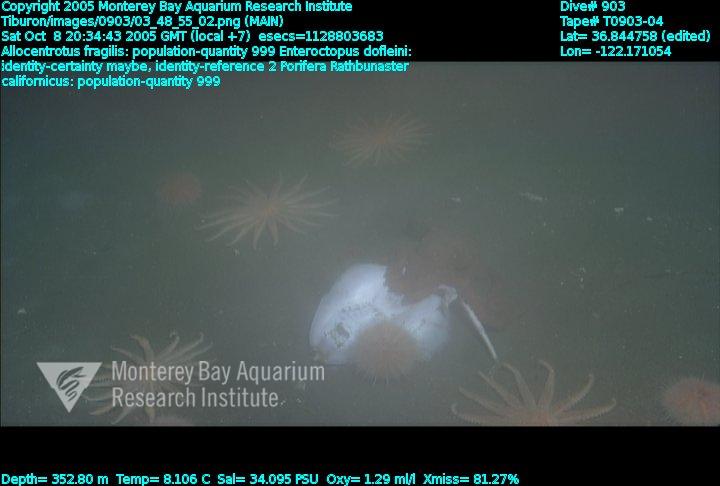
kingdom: Animalia
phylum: Porifera
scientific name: Porifera
